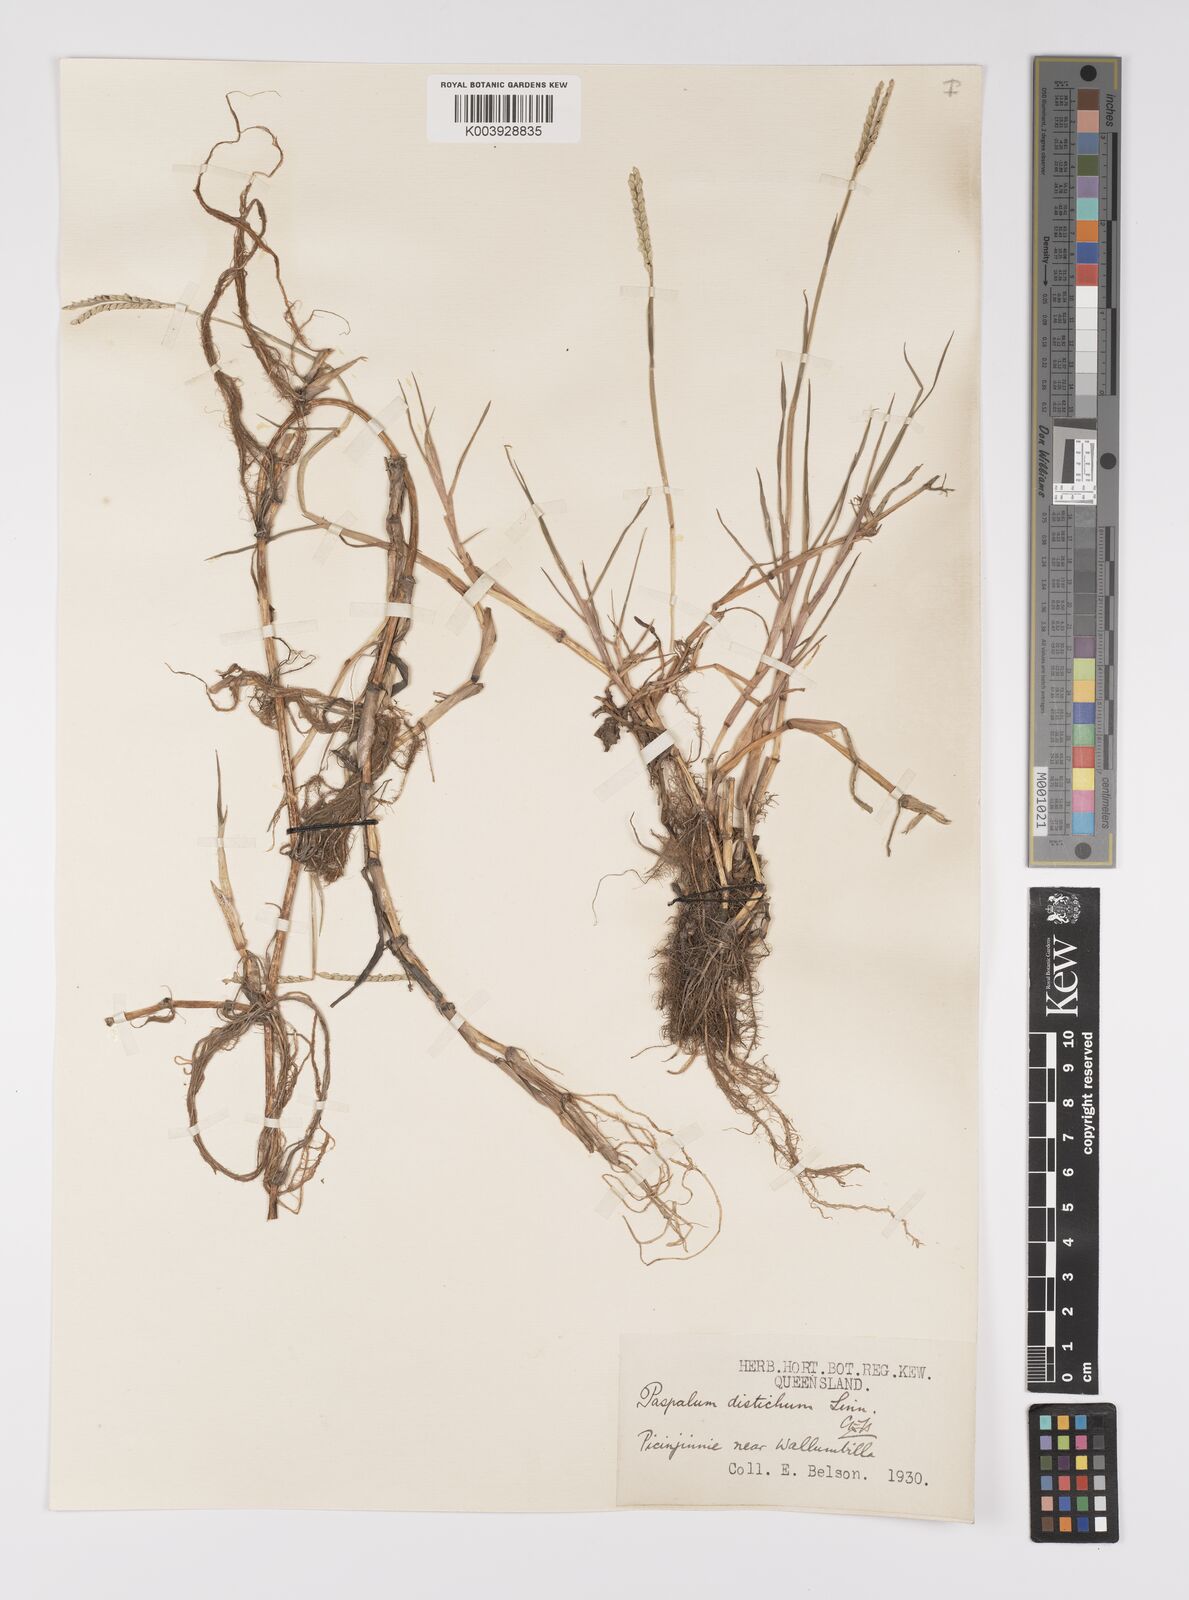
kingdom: Plantae
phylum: Tracheophyta
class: Liliopsida
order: Poales
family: Poaceae
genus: Paspalum
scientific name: Paspalum distichum
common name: Knotgrass
